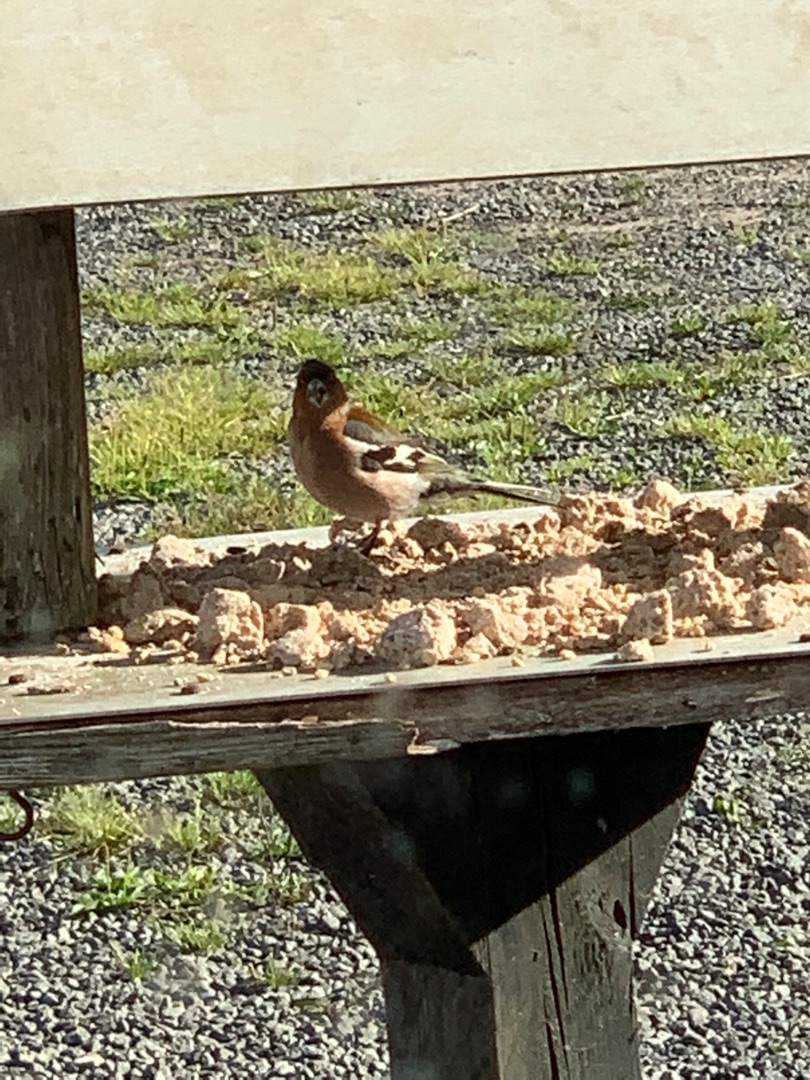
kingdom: Animalia
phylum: Chordata
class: Aves
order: Passeriformes
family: Fringillidae
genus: Fringilla
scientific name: Fringilla coelebs
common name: Bogfinke
